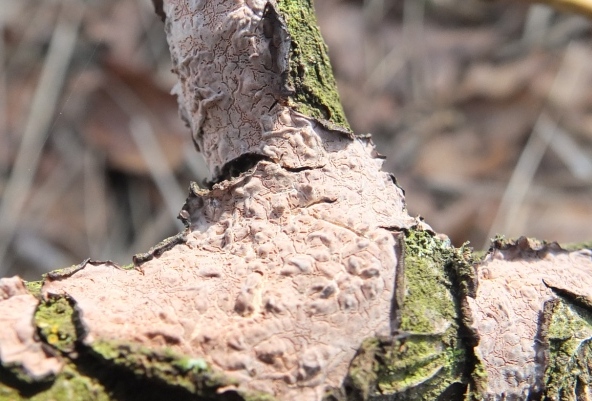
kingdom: Fungi
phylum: Basidiomycota
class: Agaricomycetes
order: Russulales
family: Peniophoraceae
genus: Peniophora
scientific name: Peniophora quercina
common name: ege-voksskind
